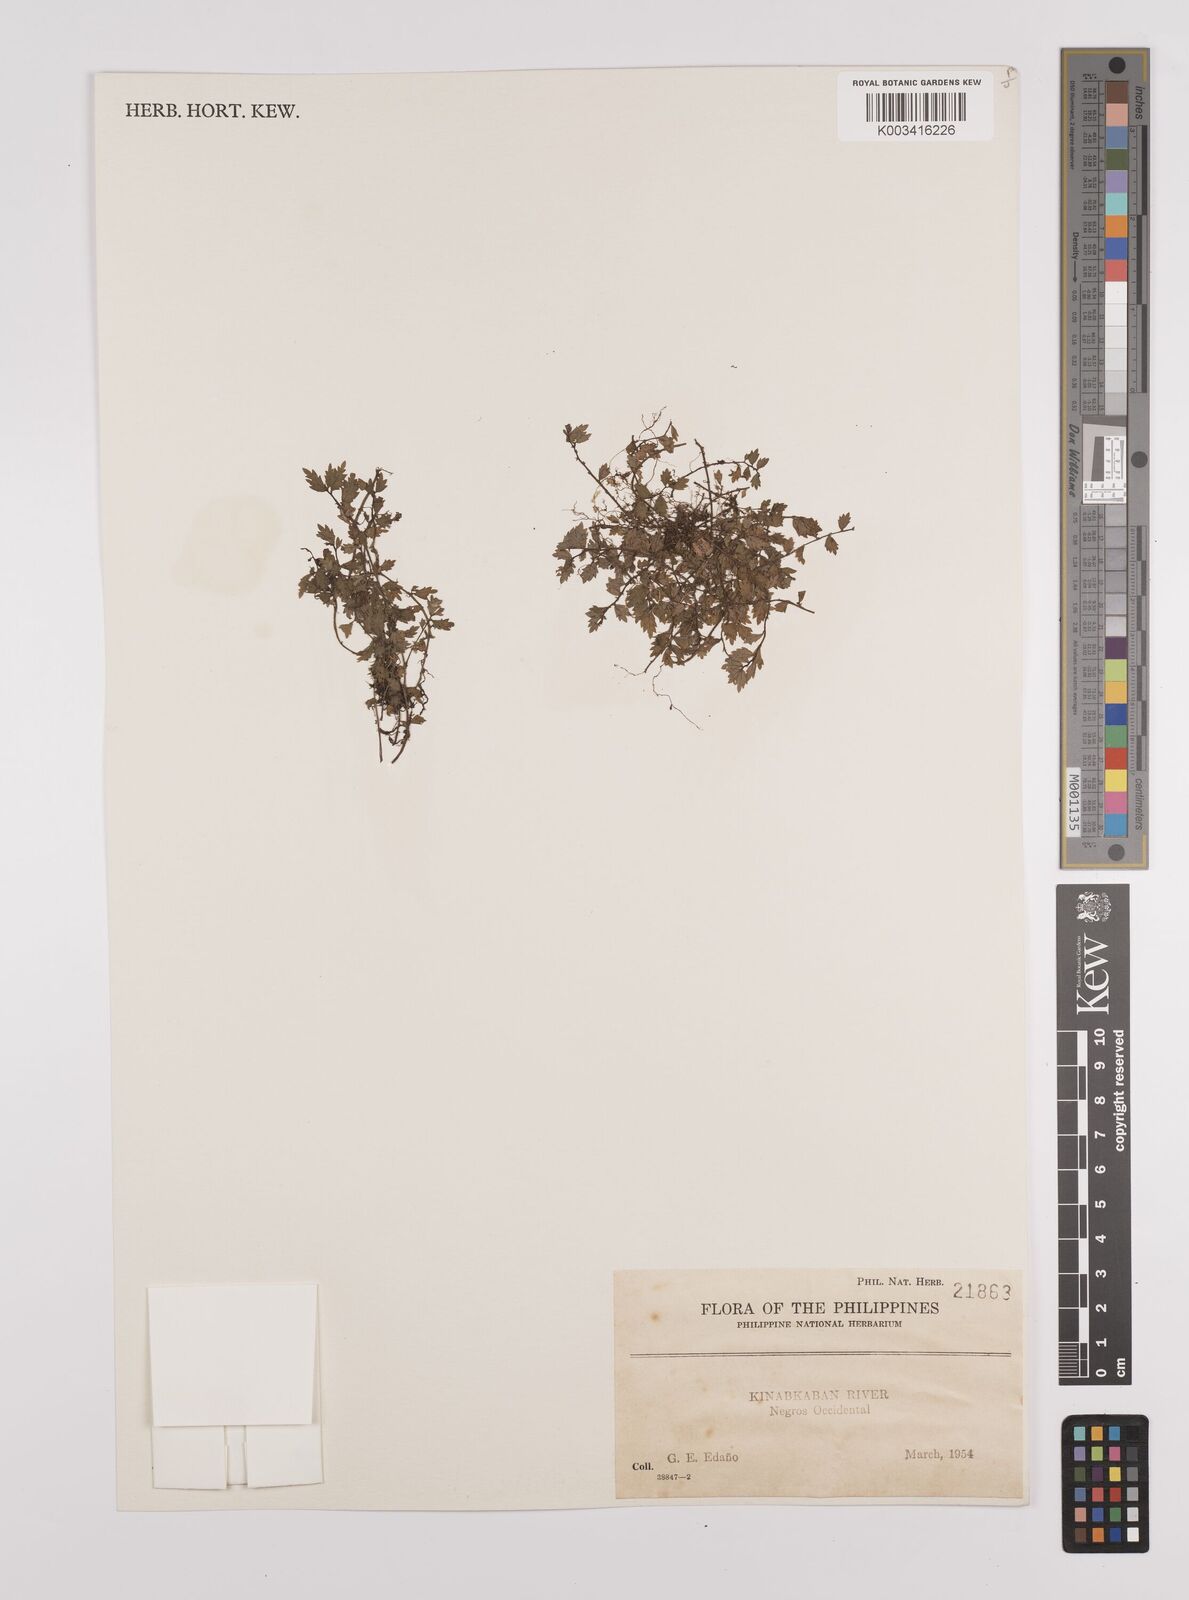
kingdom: Plantae
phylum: Tracheophyta
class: Magnoliopsida
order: Rosales
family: Urticaceae
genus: Elatostema
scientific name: Elatostema
